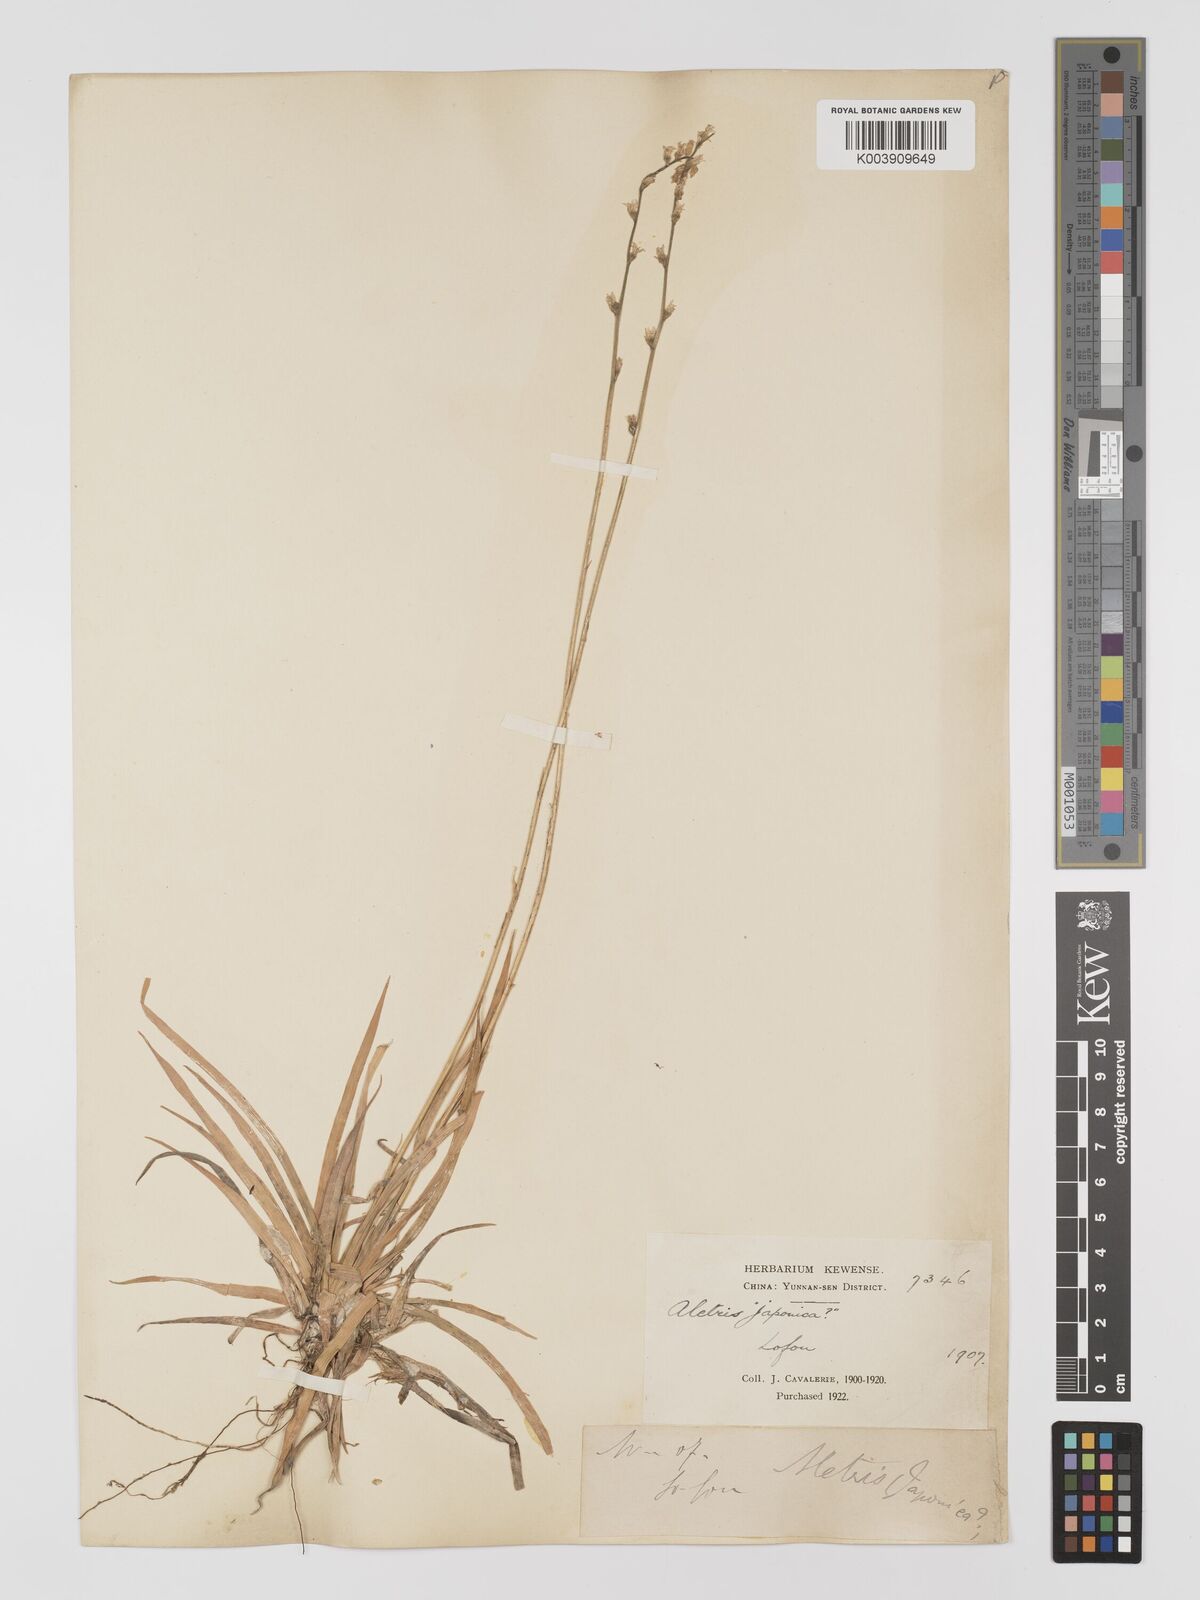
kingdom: Plantae
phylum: Tracheophyta
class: Liliopsida
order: Dioscoreales
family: Nartheciaceae
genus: Aletris
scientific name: Aletris spicata
